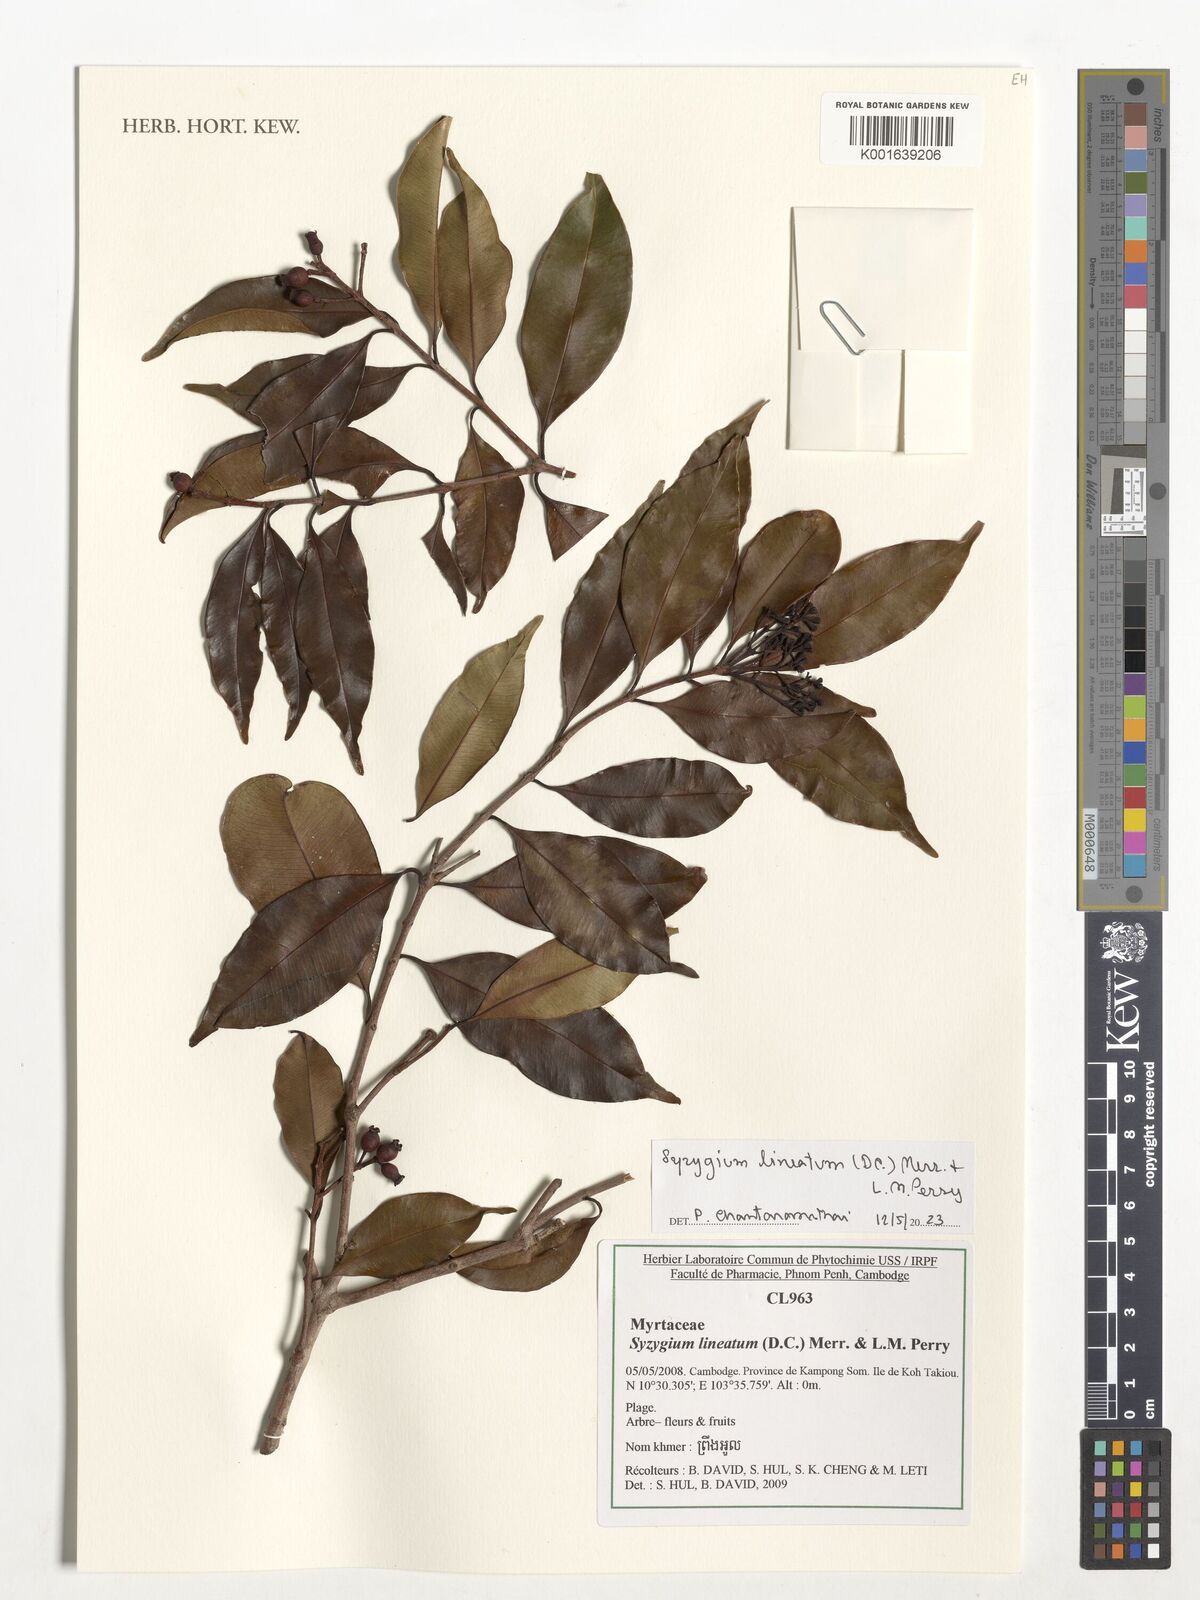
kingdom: Plantae
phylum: Tracheophyta
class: Magnoliopsida
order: Myrtales
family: Myrtaceae
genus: Syzygium
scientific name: Syzygium lineatum
